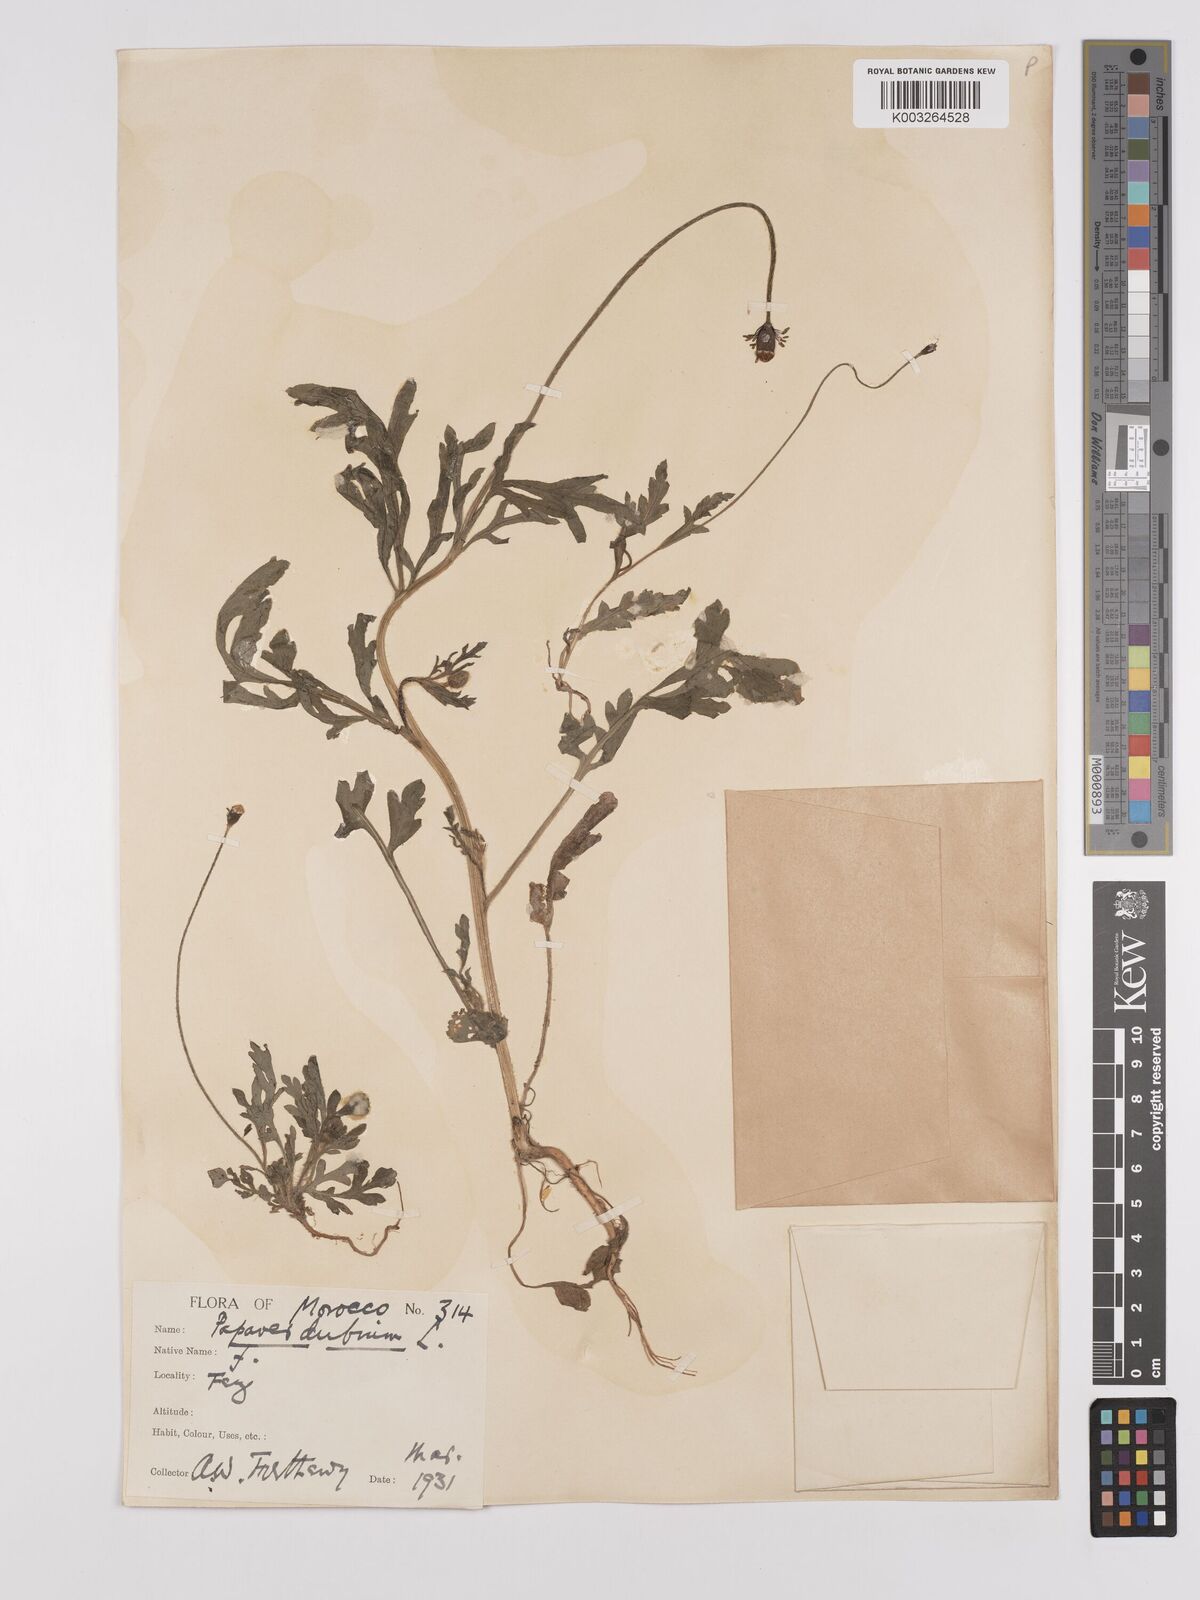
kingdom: Plantae
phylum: Tracheophyta
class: Magnoliopsida
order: Ranunculales
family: Papaveraceae
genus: Papaver
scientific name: Papaver dubium
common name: Long-headed poppy
